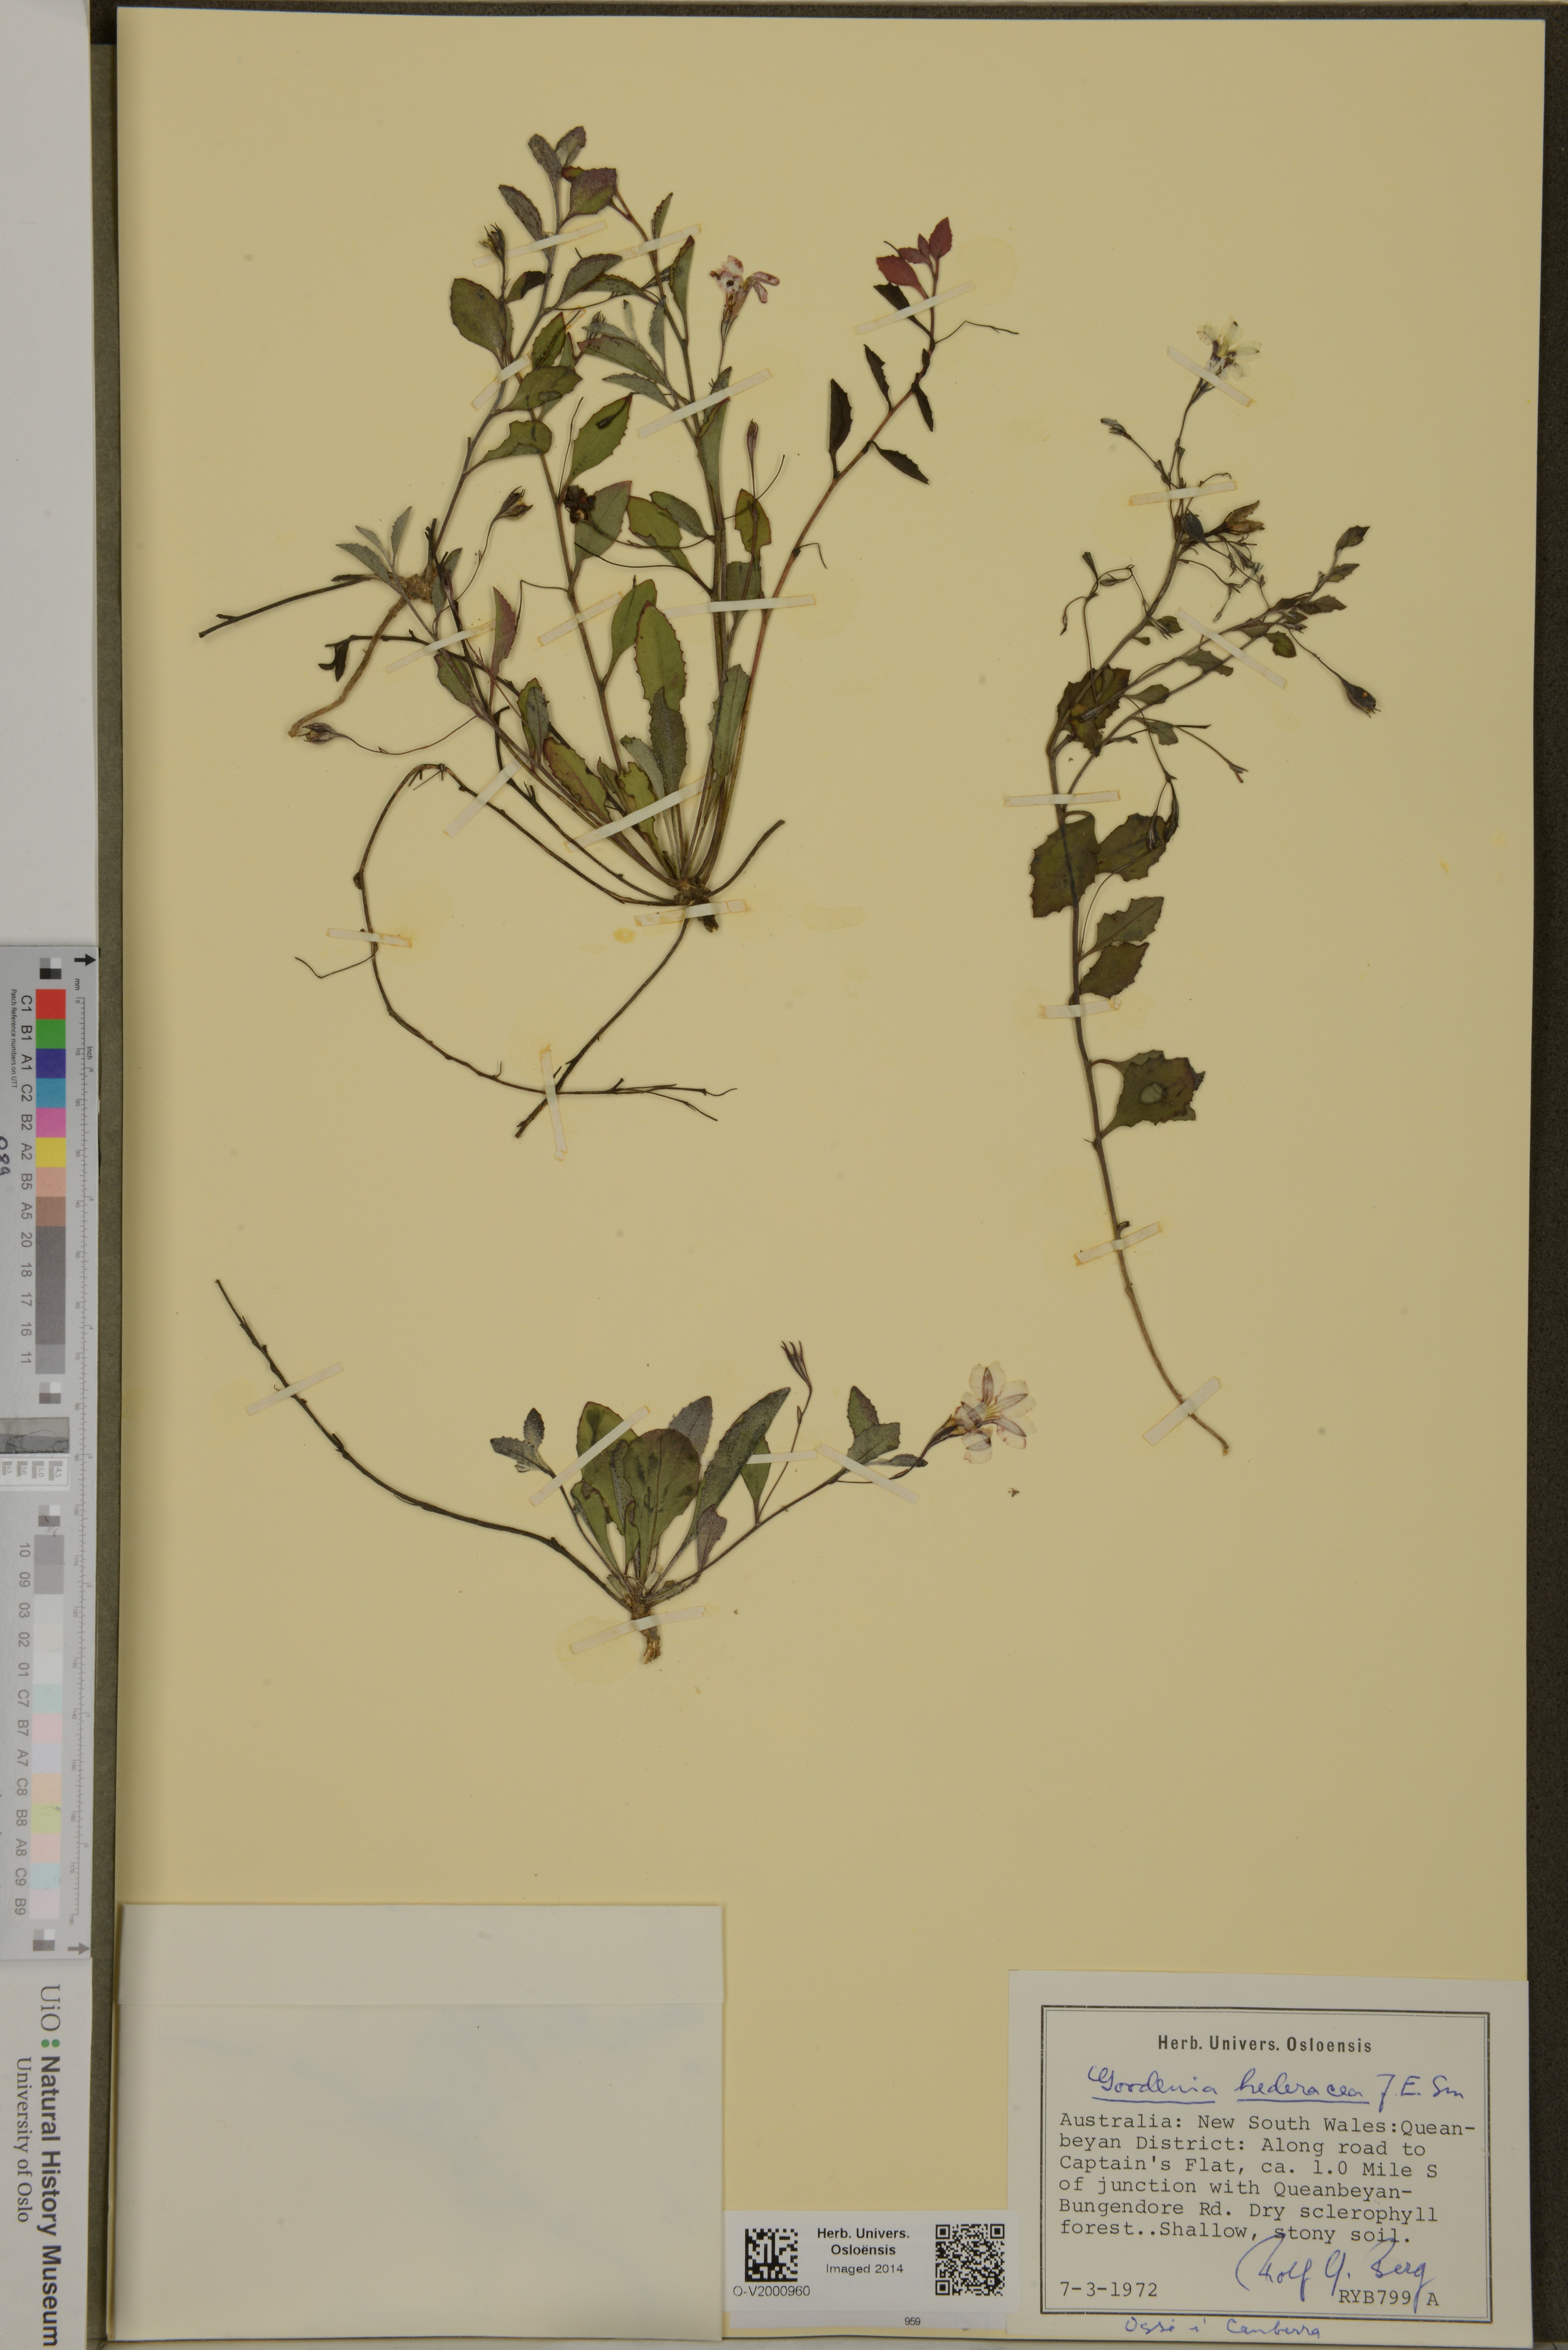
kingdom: Plantae
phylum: Tracheophyta
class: Magnoliopsida
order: Asterales
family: Goodeniaceae
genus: Goodenia
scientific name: Goodenia hederacea
